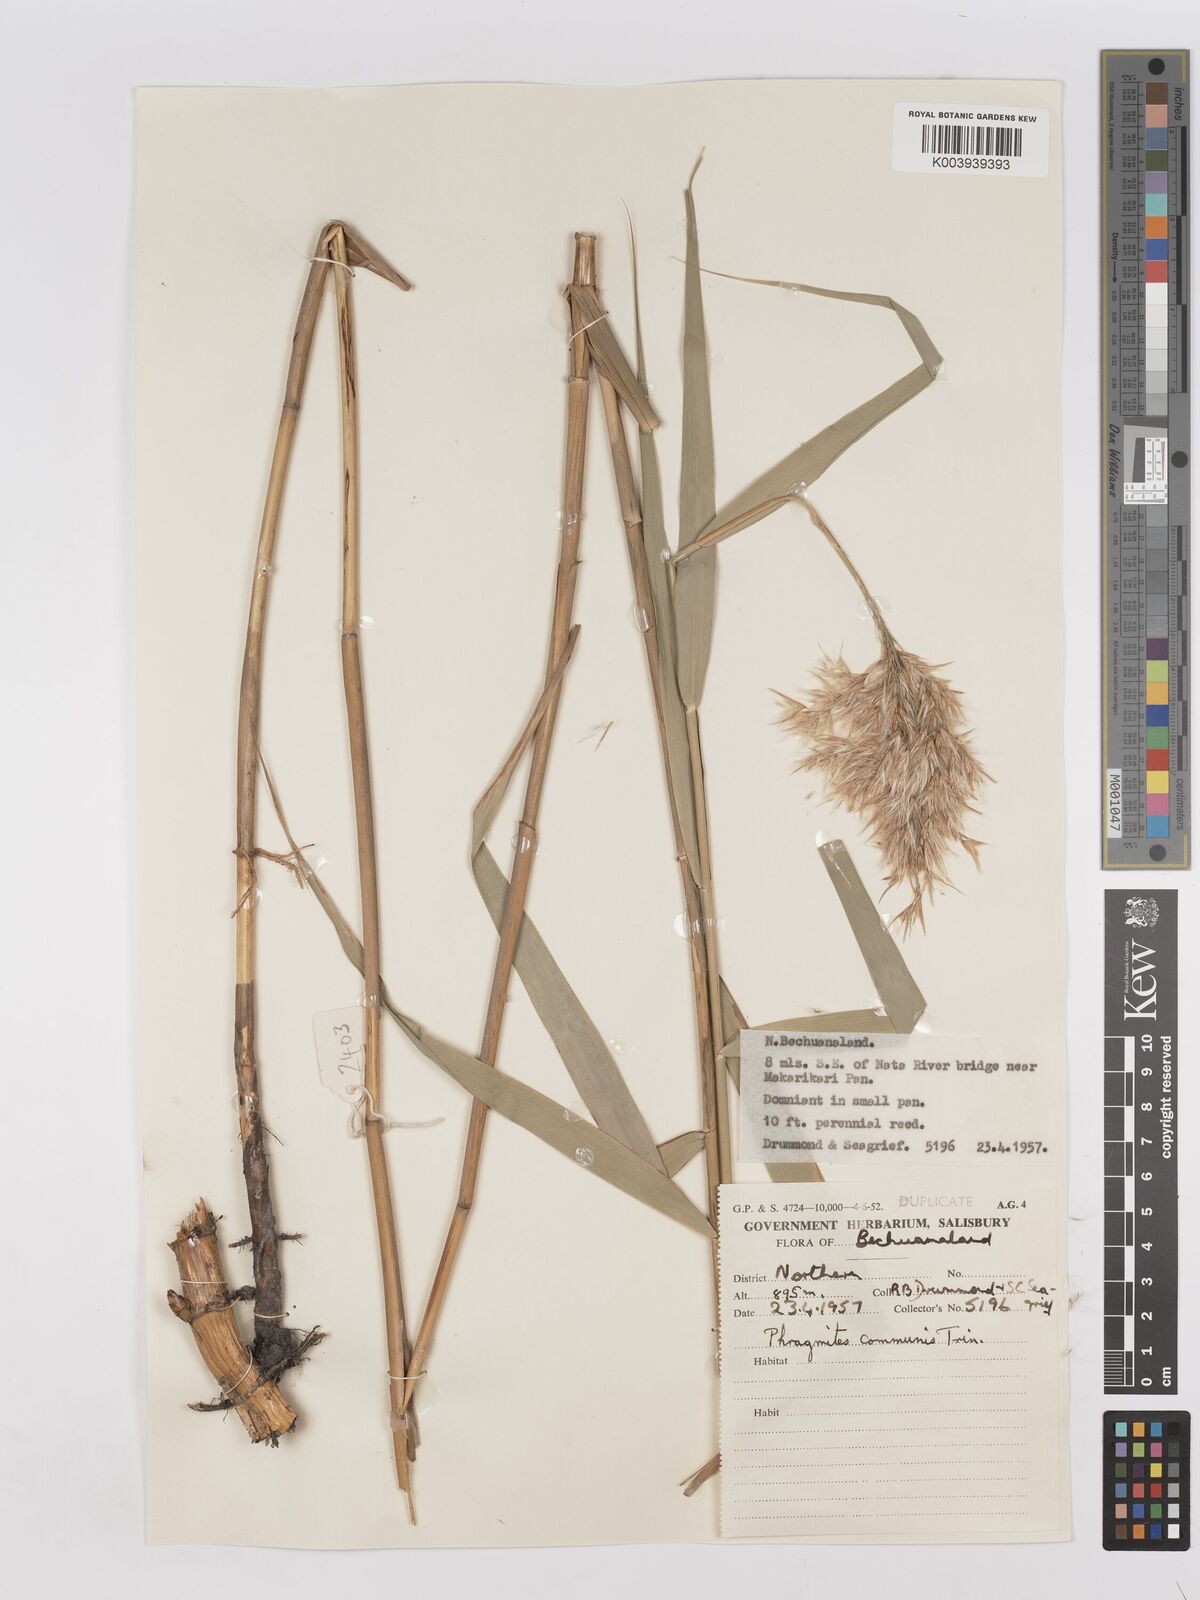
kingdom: Plantae
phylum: Tracheophyta
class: Liliopsida
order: Poales
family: Poaceae
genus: Phragmites
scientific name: Phragmites australis
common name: Common reed
